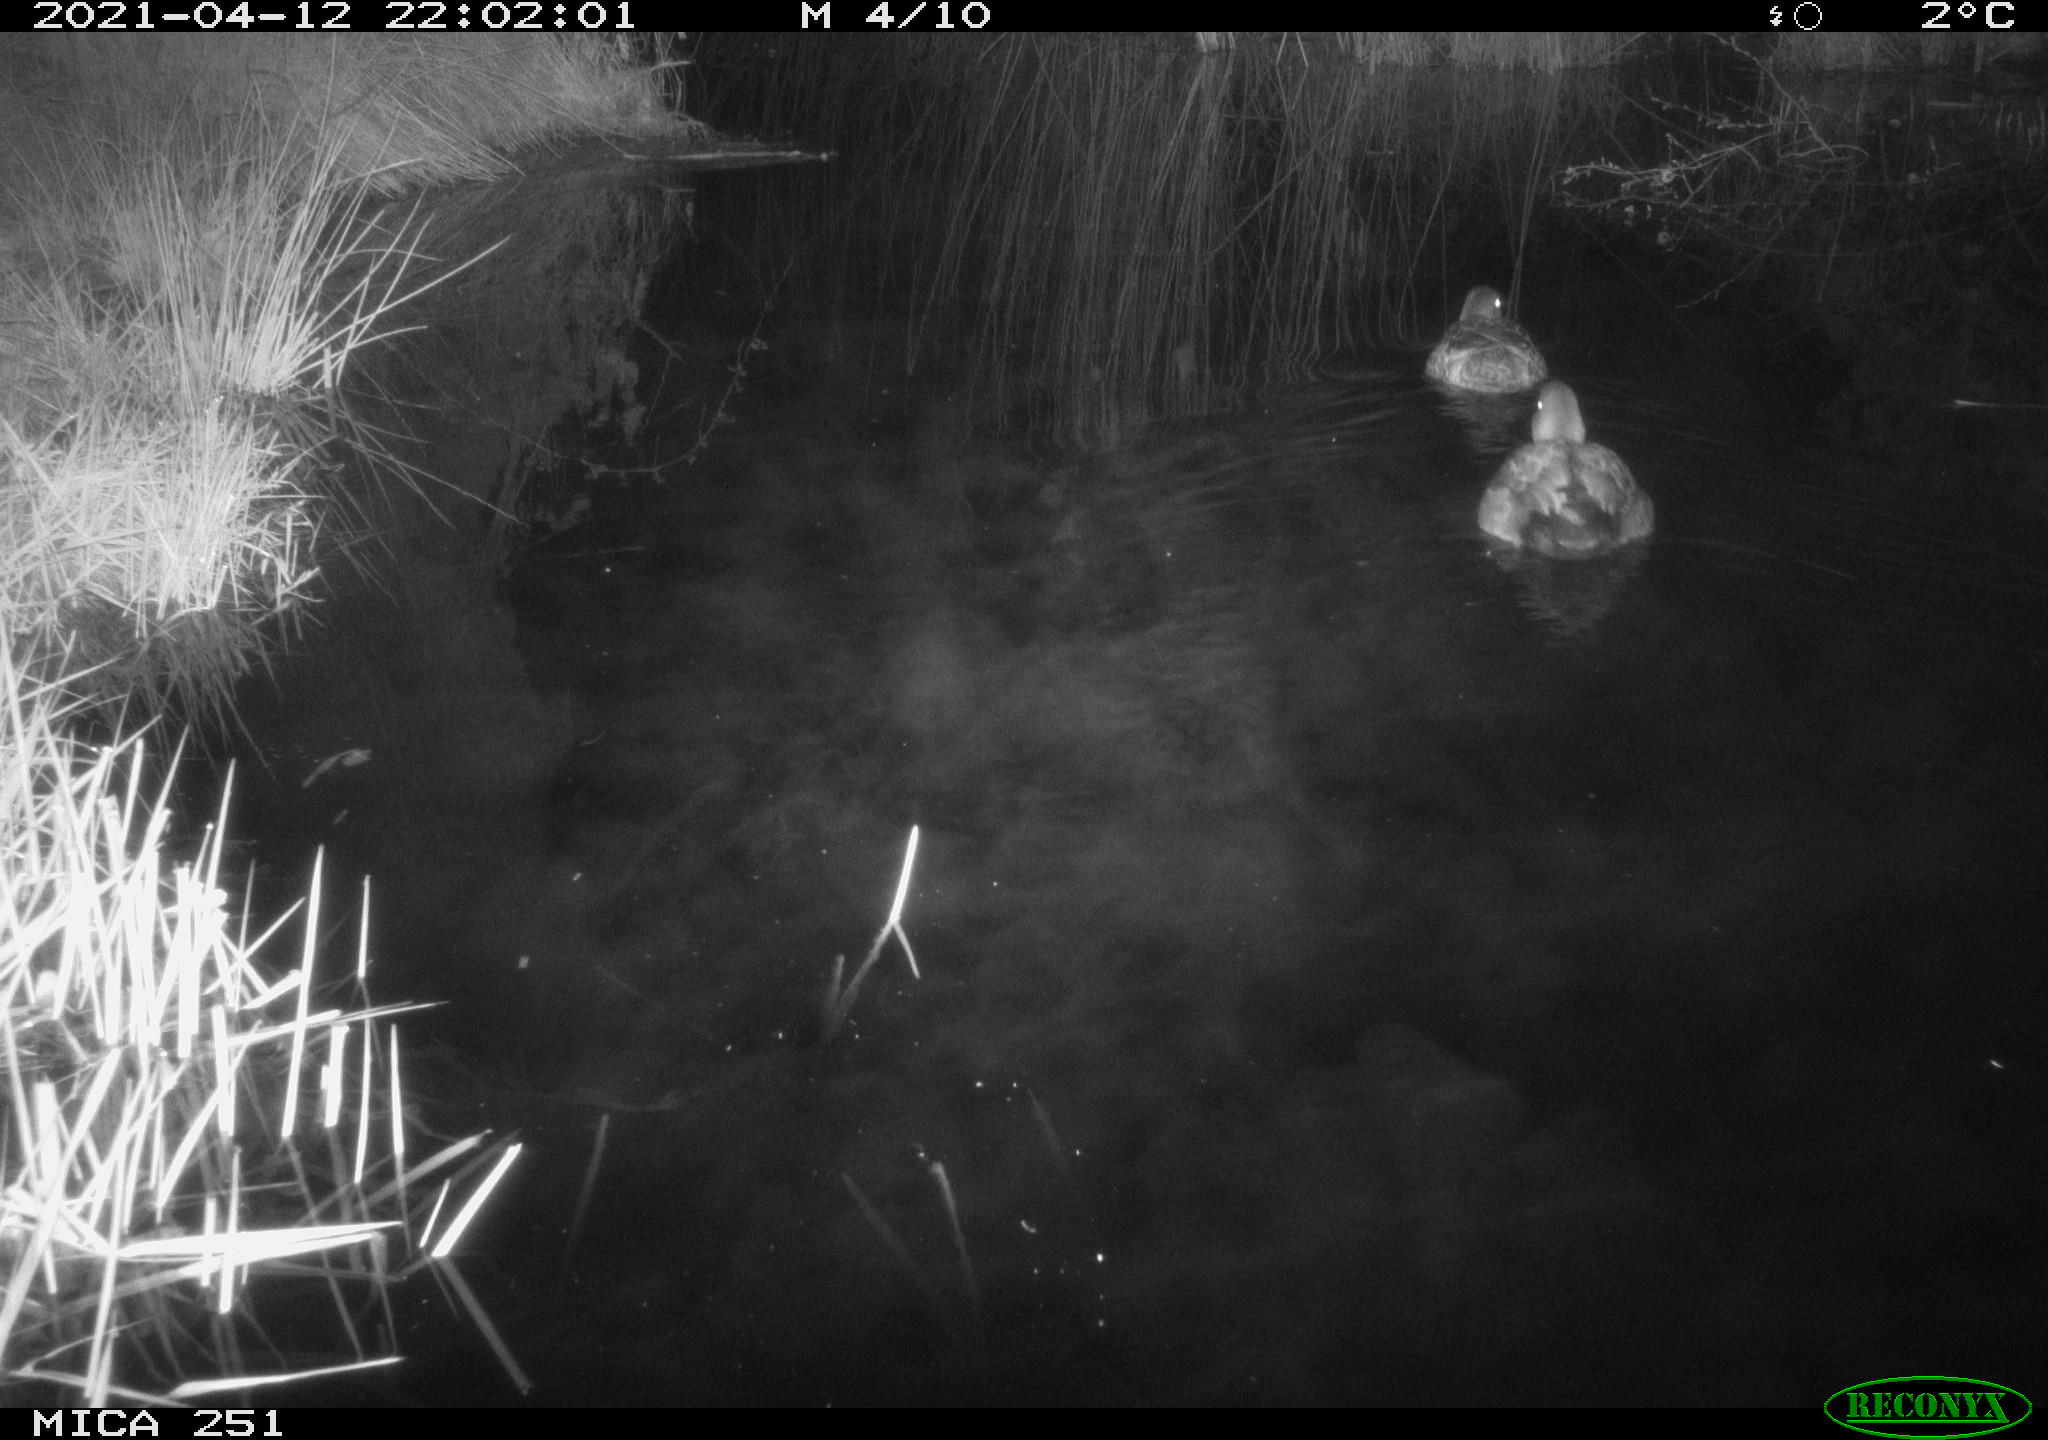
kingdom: Animalia
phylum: Chordata
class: Aves
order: Anseriformes
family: Anatidae
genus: Anas
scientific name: Anas platyrhynchos
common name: Mallard
